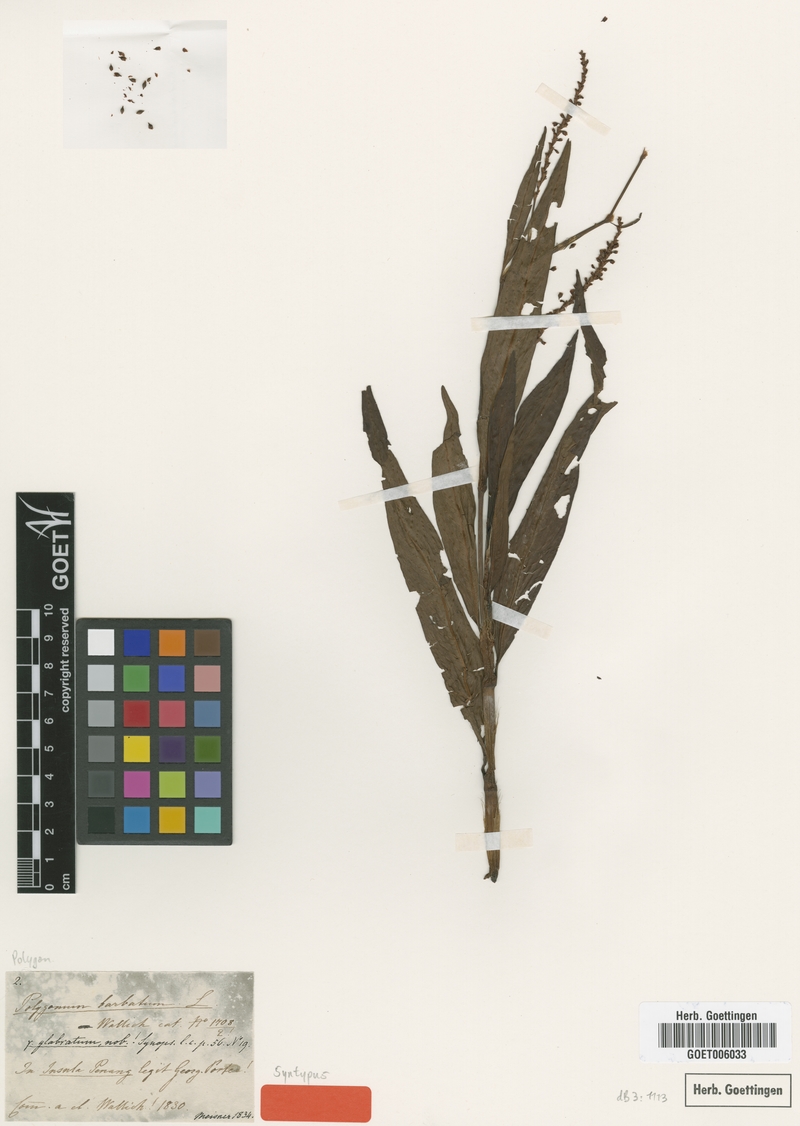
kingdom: Plantae
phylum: Tracheophyta
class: Magnoliopsida
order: Caryophyllales
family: Polygonaceae
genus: Persicaria
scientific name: Persicaria barbata
